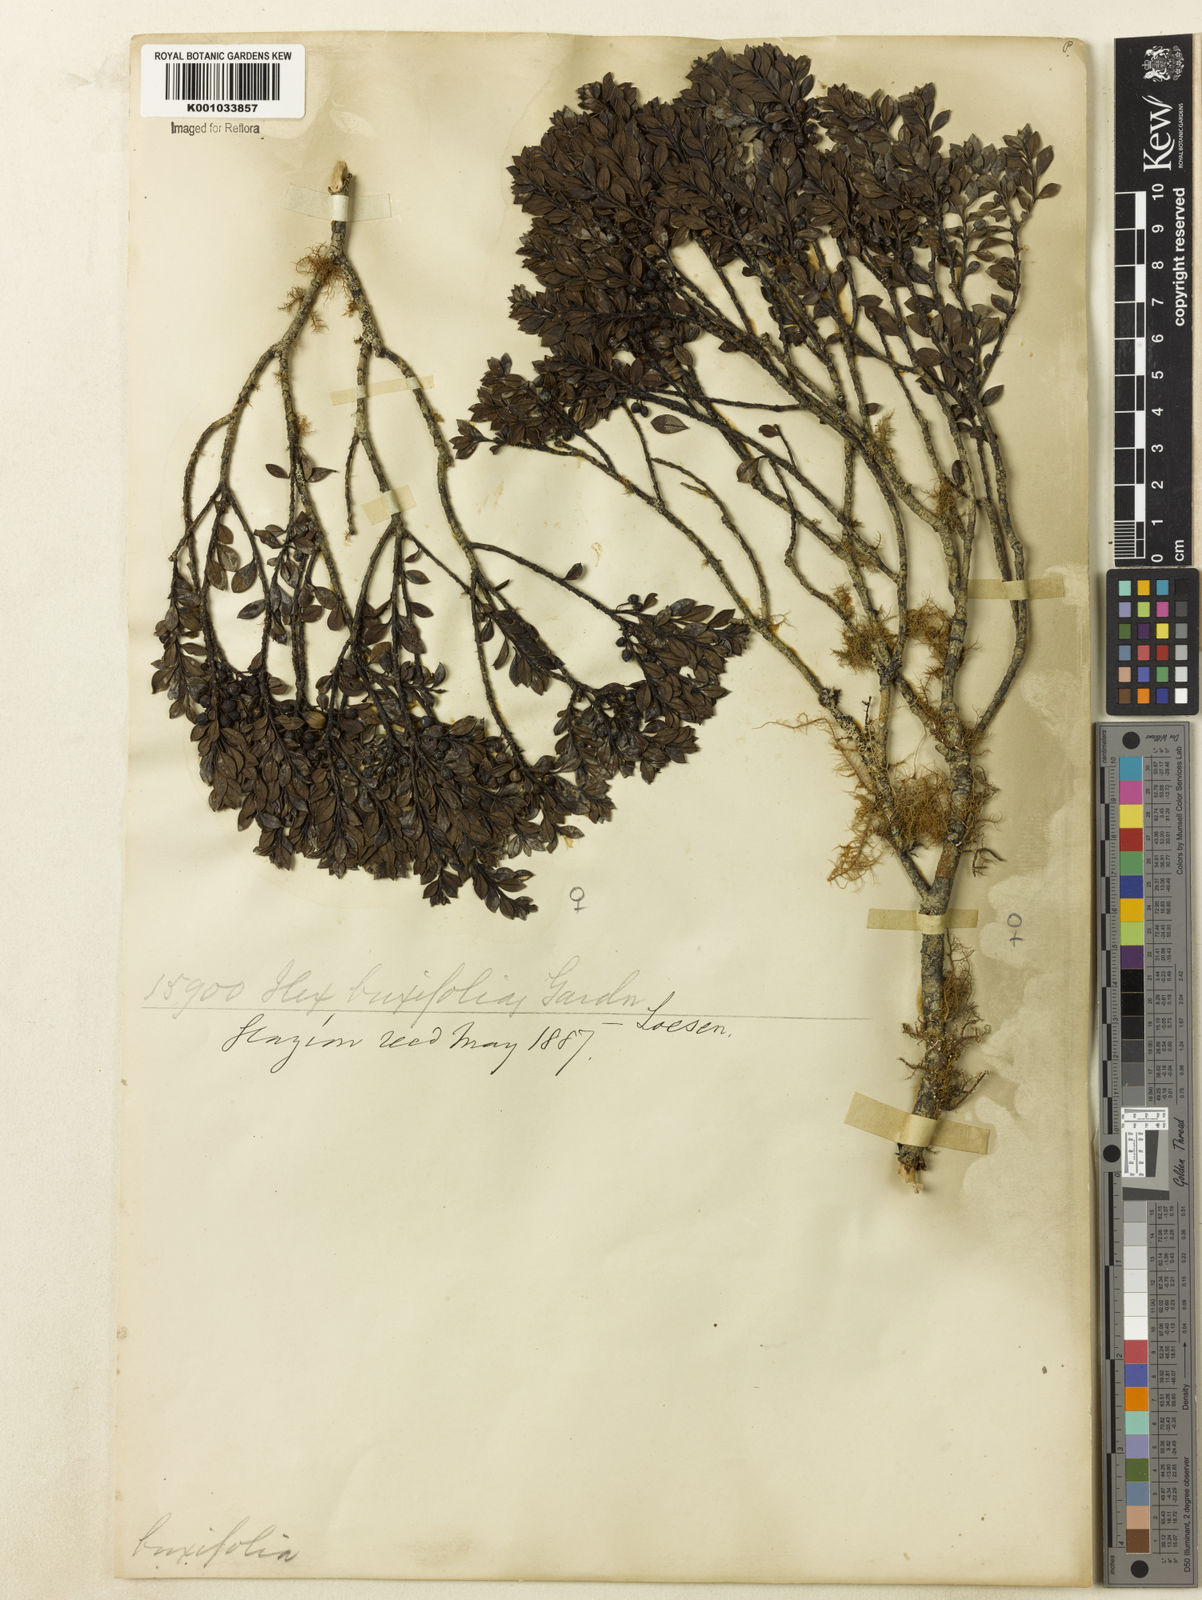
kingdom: Plantae
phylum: Tracheophyta
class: Magnoliopsida
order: Aquifoliales
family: Aquifoliaceae
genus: Ilex
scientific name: Ilex buxifolia
